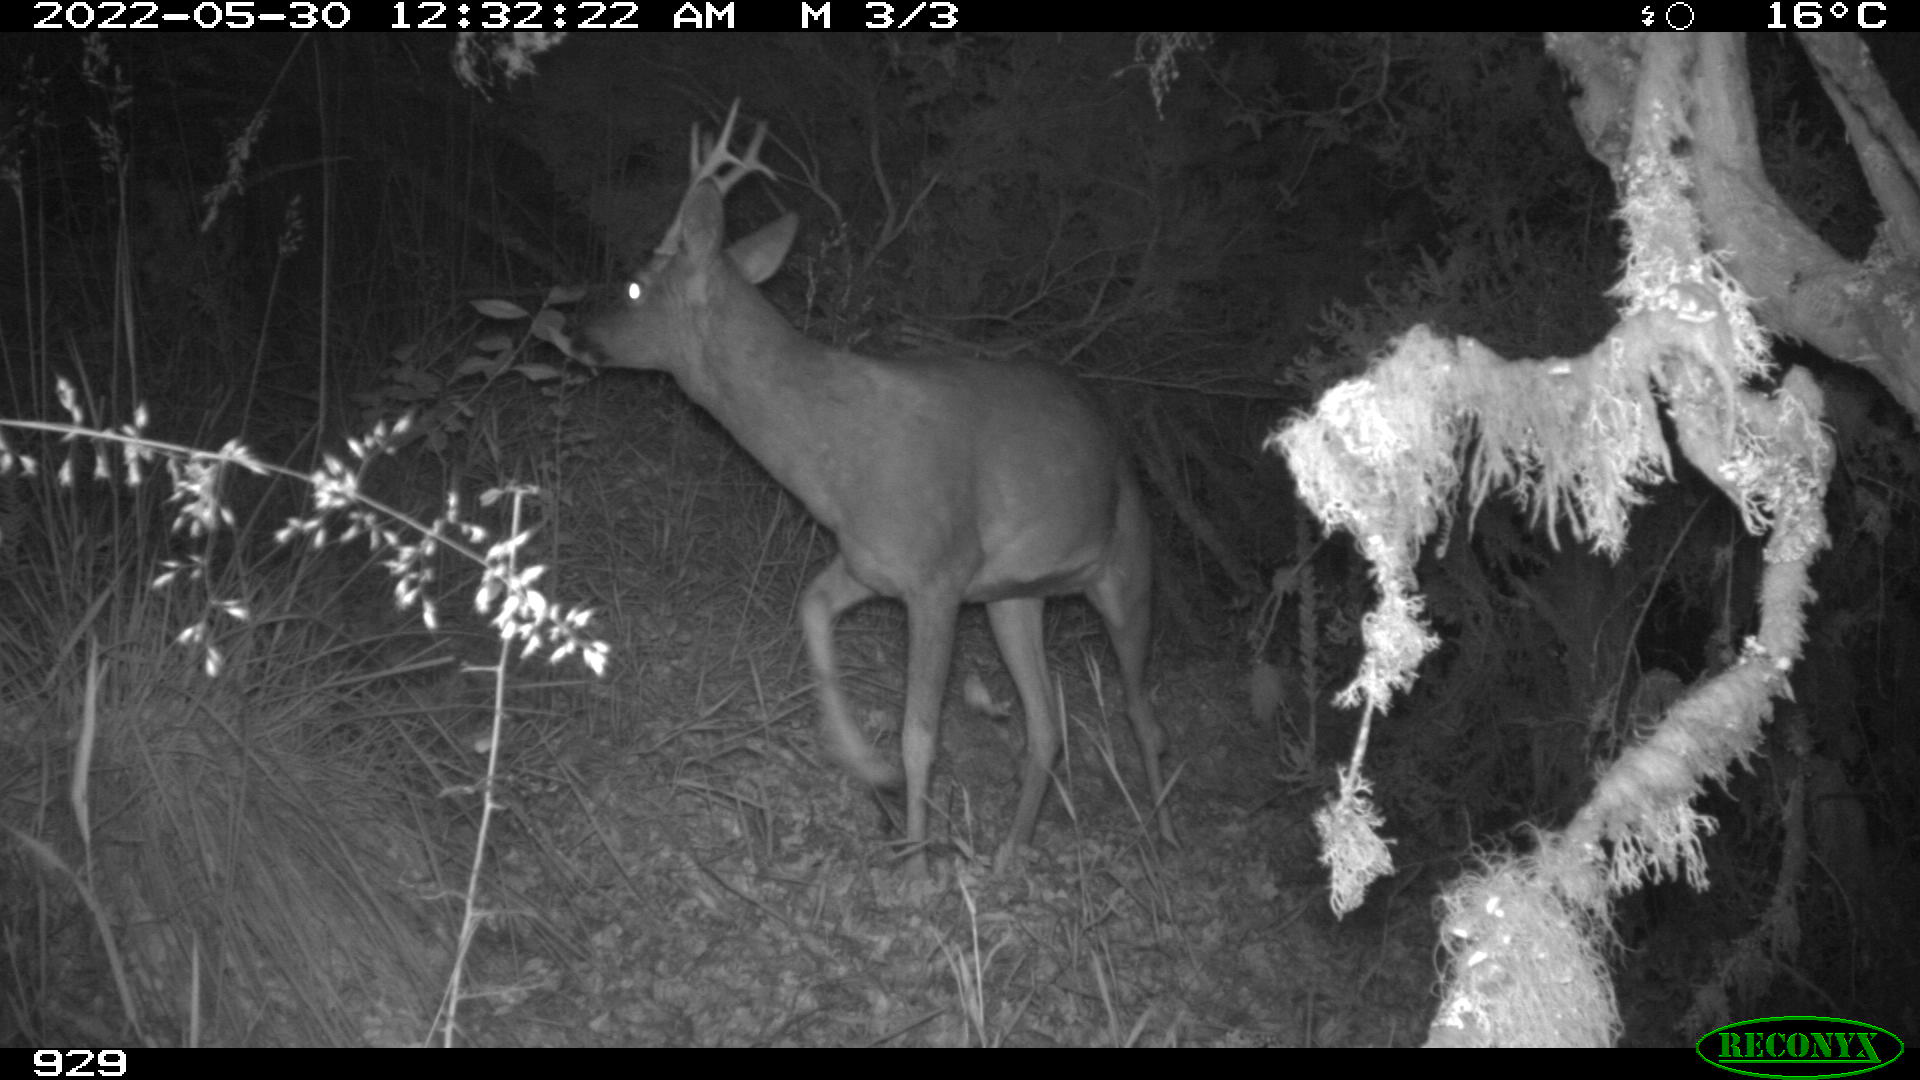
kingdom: Animalia
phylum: Chordata
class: Mammalia
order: Artiodactyla
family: Cervidae
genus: Capreolus
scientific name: Capreolus capreolus
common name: Western roe deer
